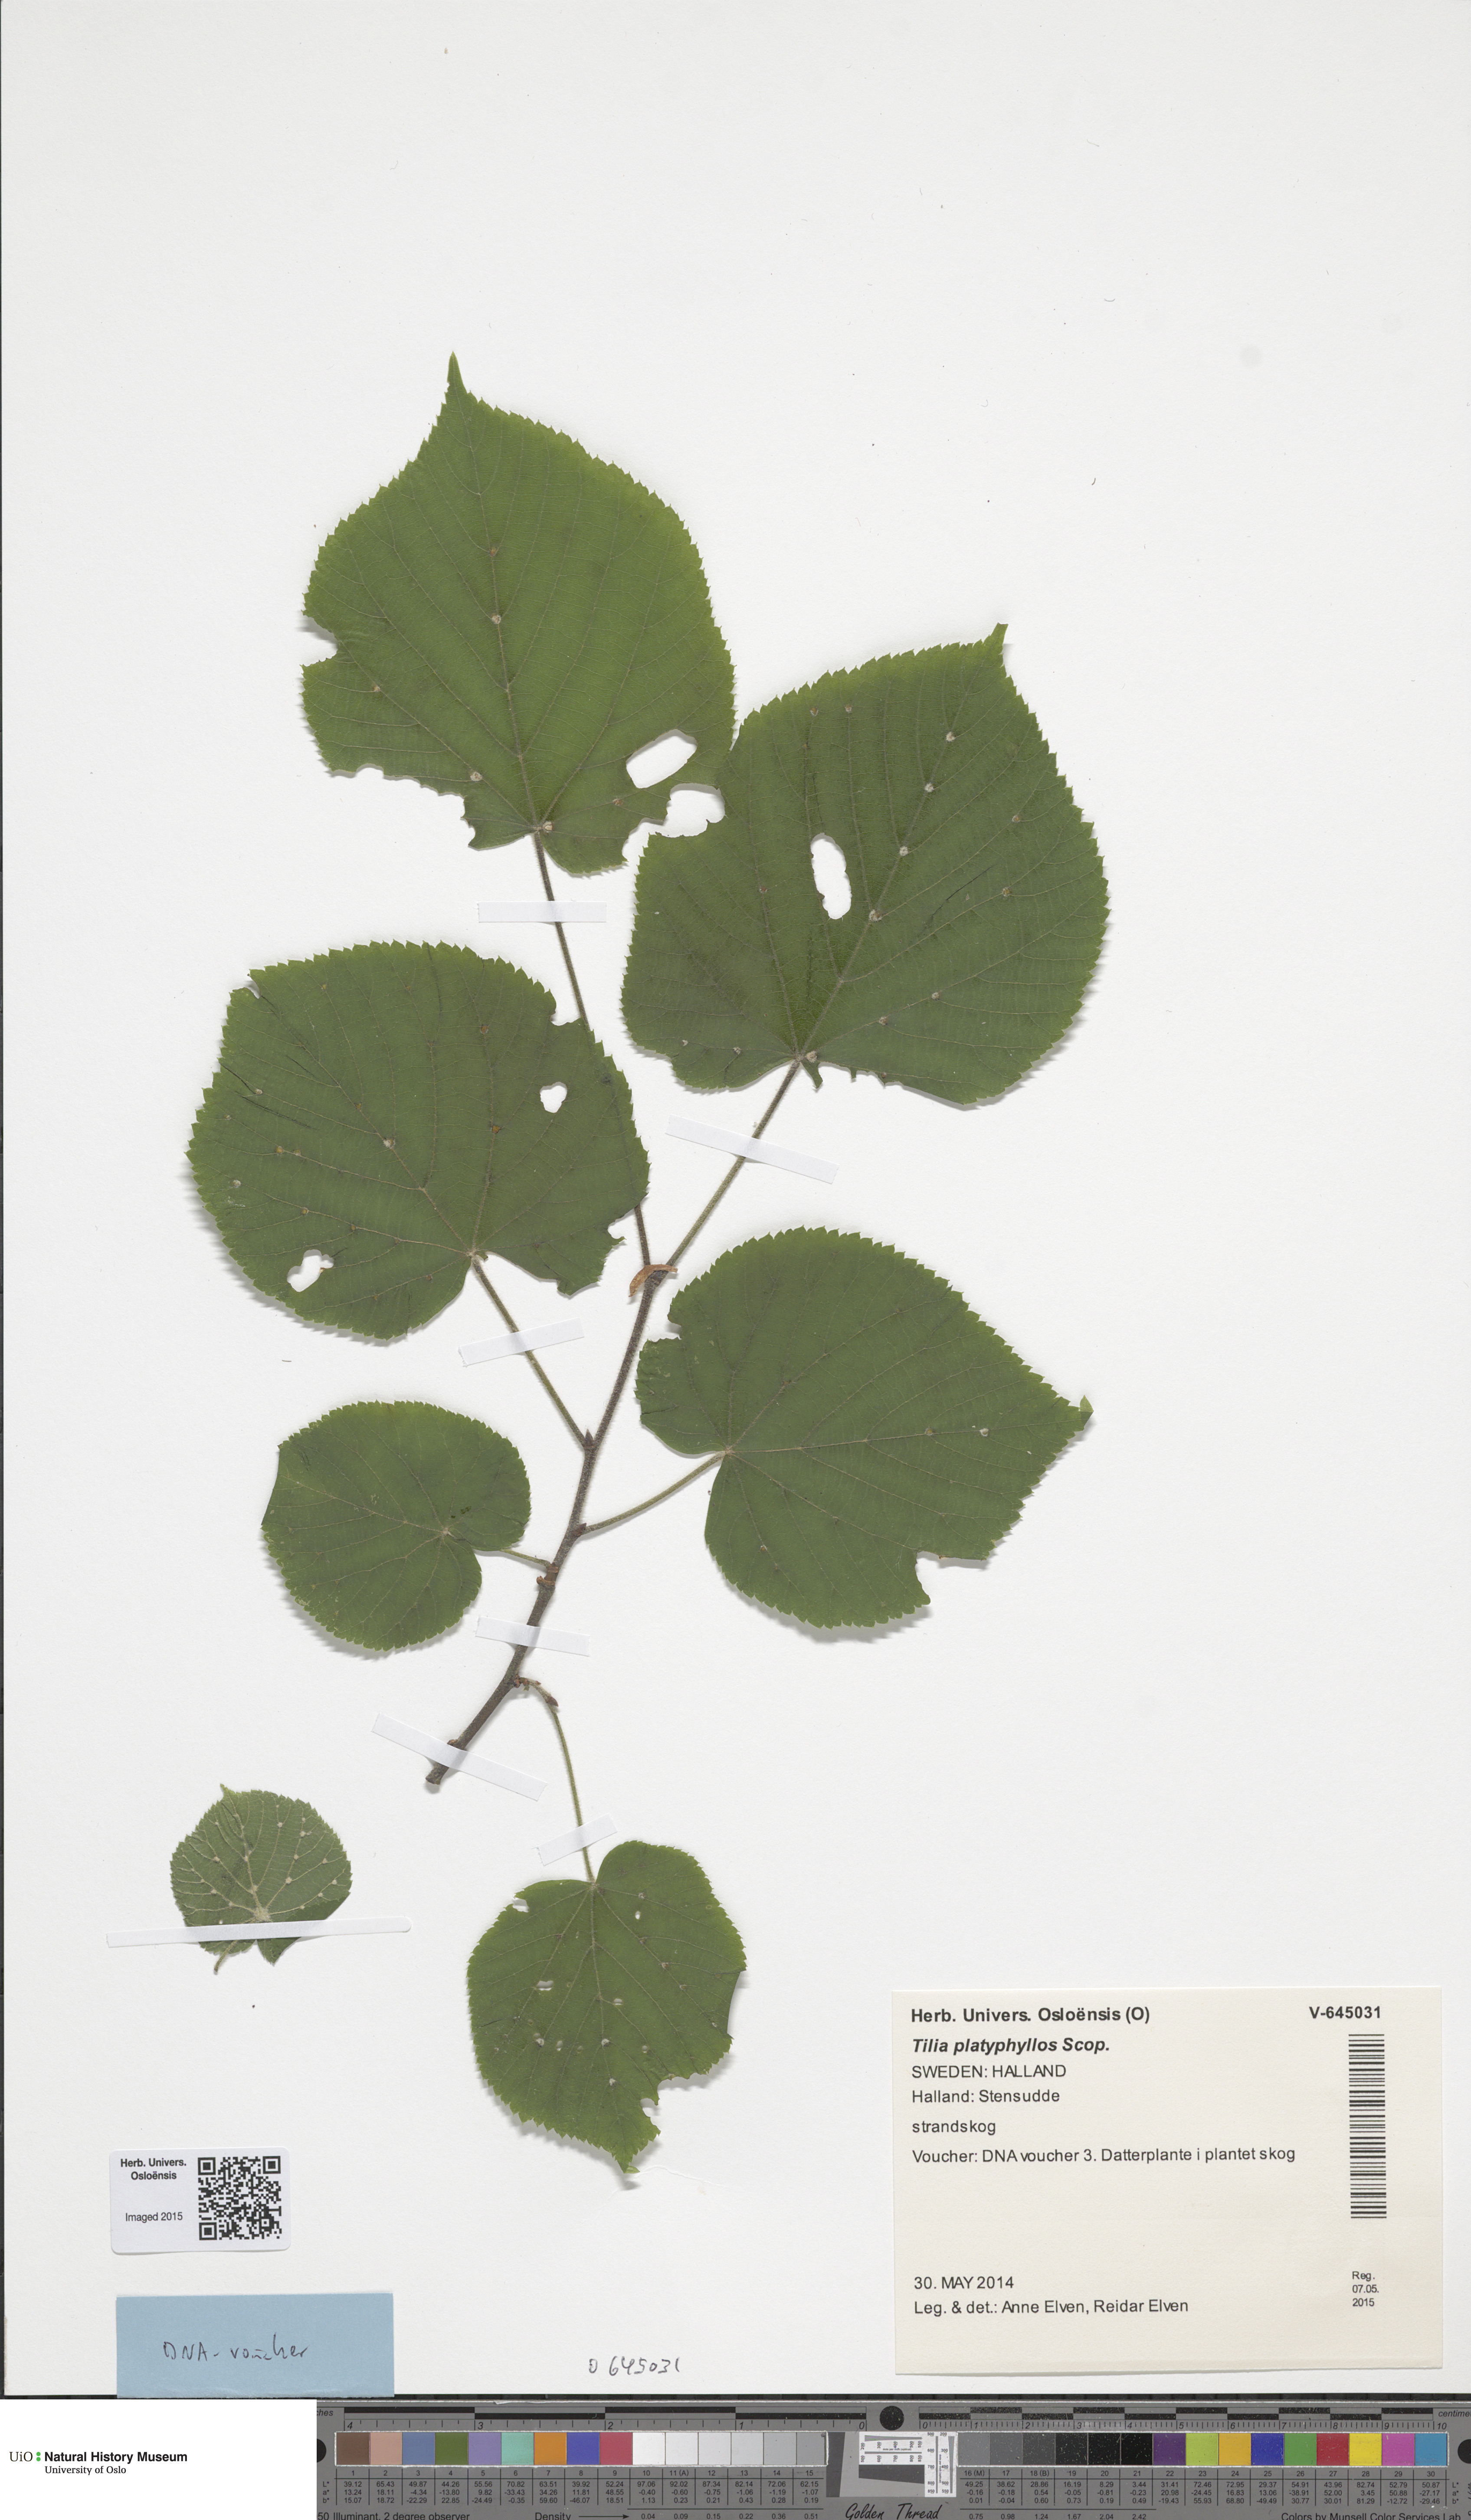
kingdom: Plantae
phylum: Tracheophyta
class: Magnoliopsida
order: Malvales
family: Malvaceae
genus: Tilia
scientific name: Tilia platyphyllos
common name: Large-leaved lime
